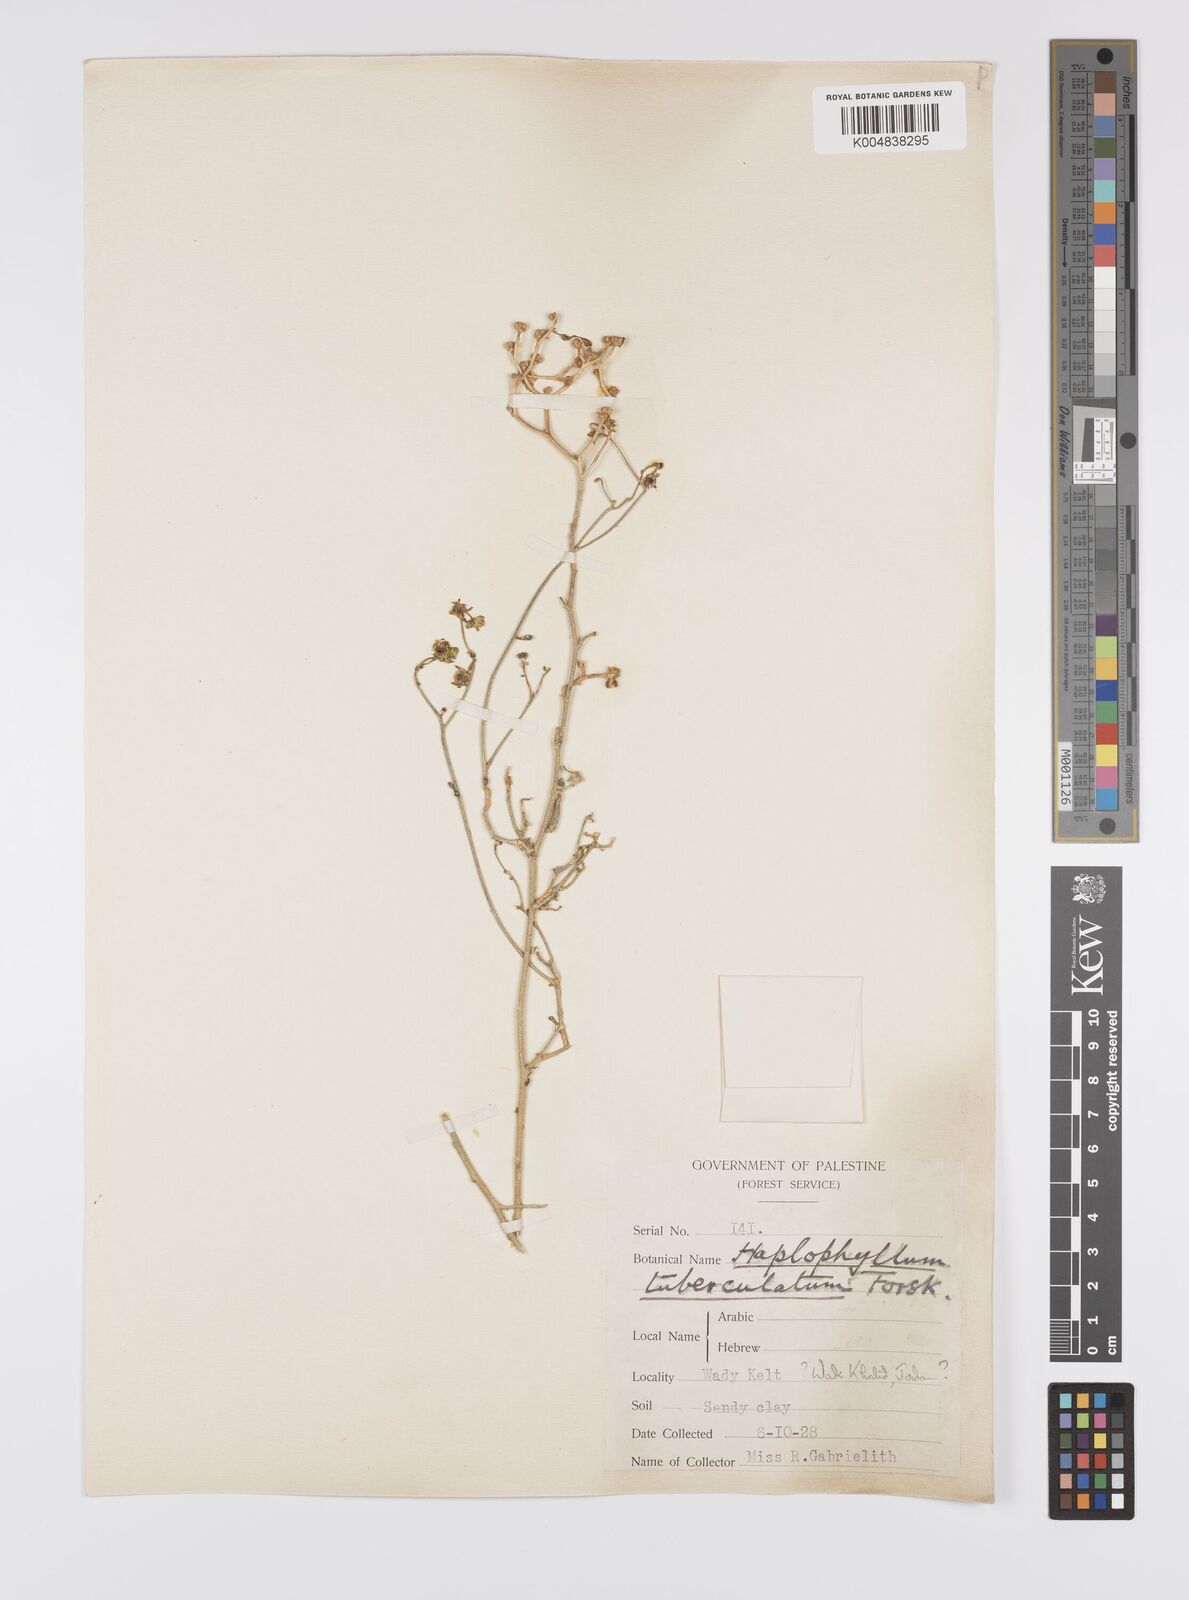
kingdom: Plantae
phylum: Tracheophyta
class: Magnoliopsida
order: Sapindales
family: Rutaceae
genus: Haplophyllum
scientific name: Haplophyllum tuberculatum
